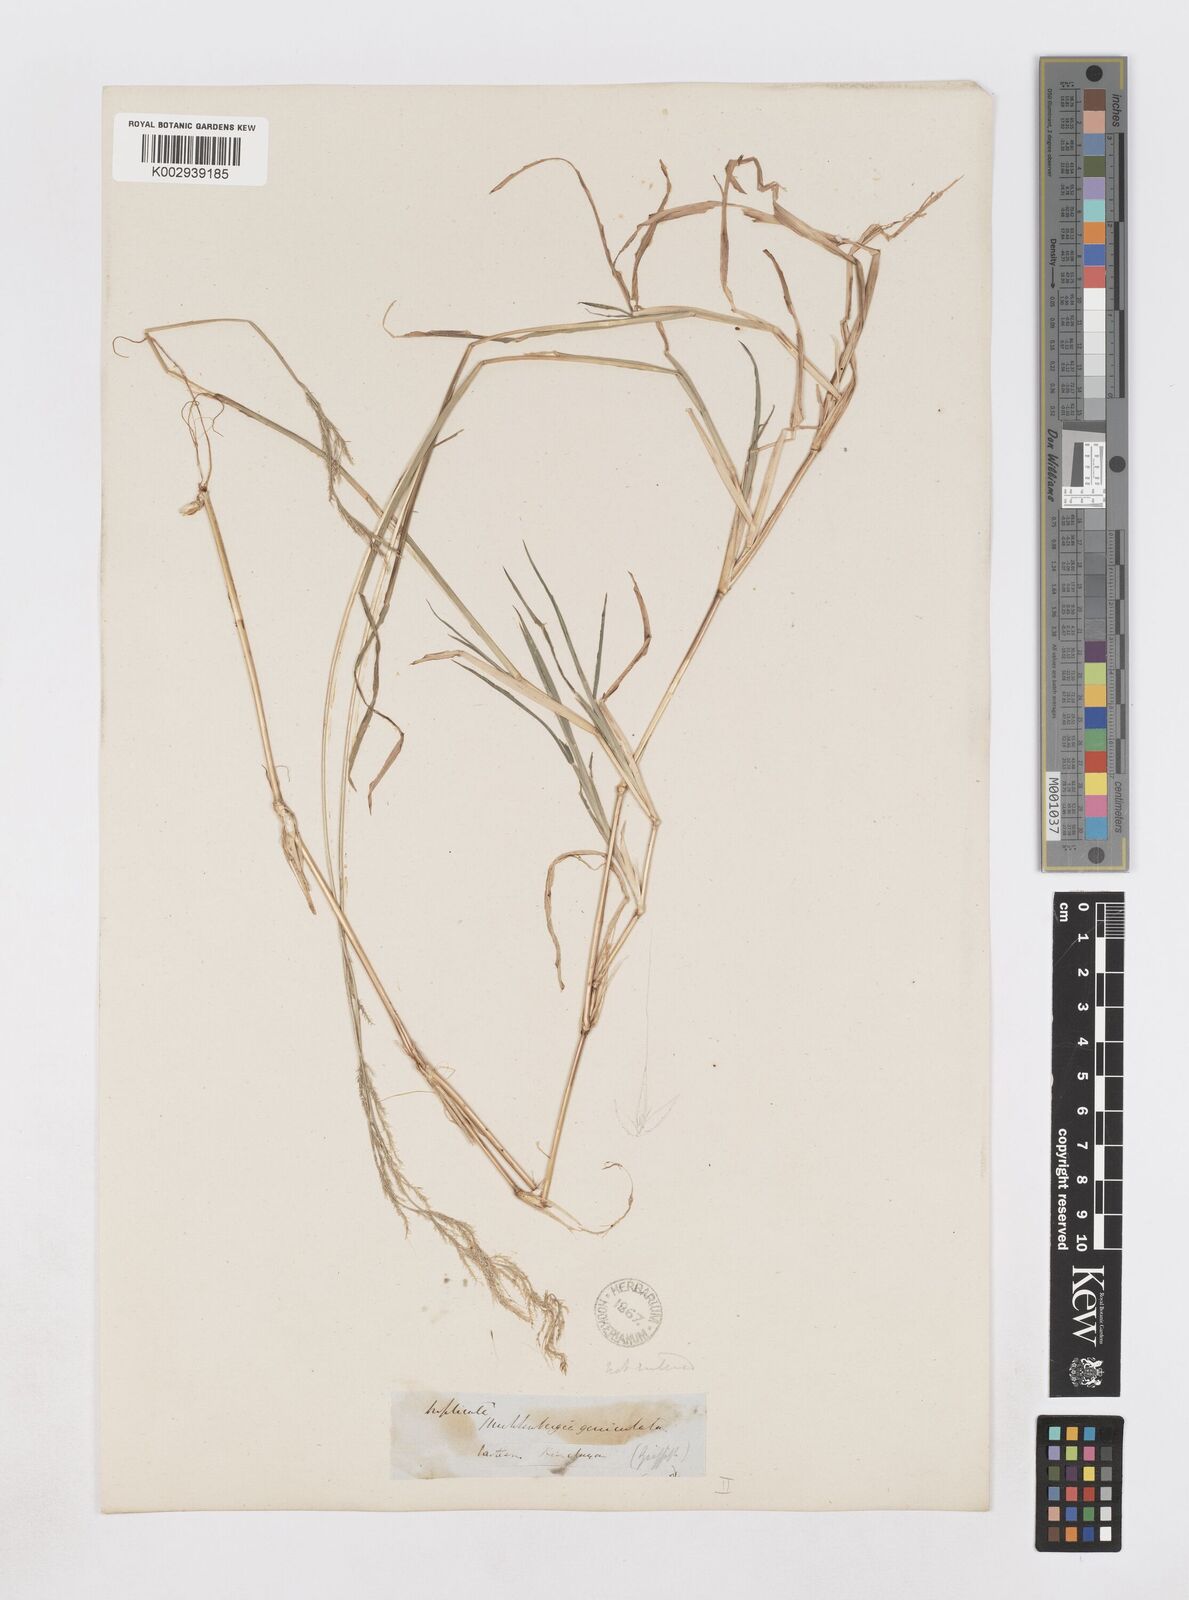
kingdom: Plantae
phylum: Tracheophyta
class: Liliopsida
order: Poales
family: Poaceae
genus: Muhlenbergia
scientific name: Muhlenbergia huegelii
